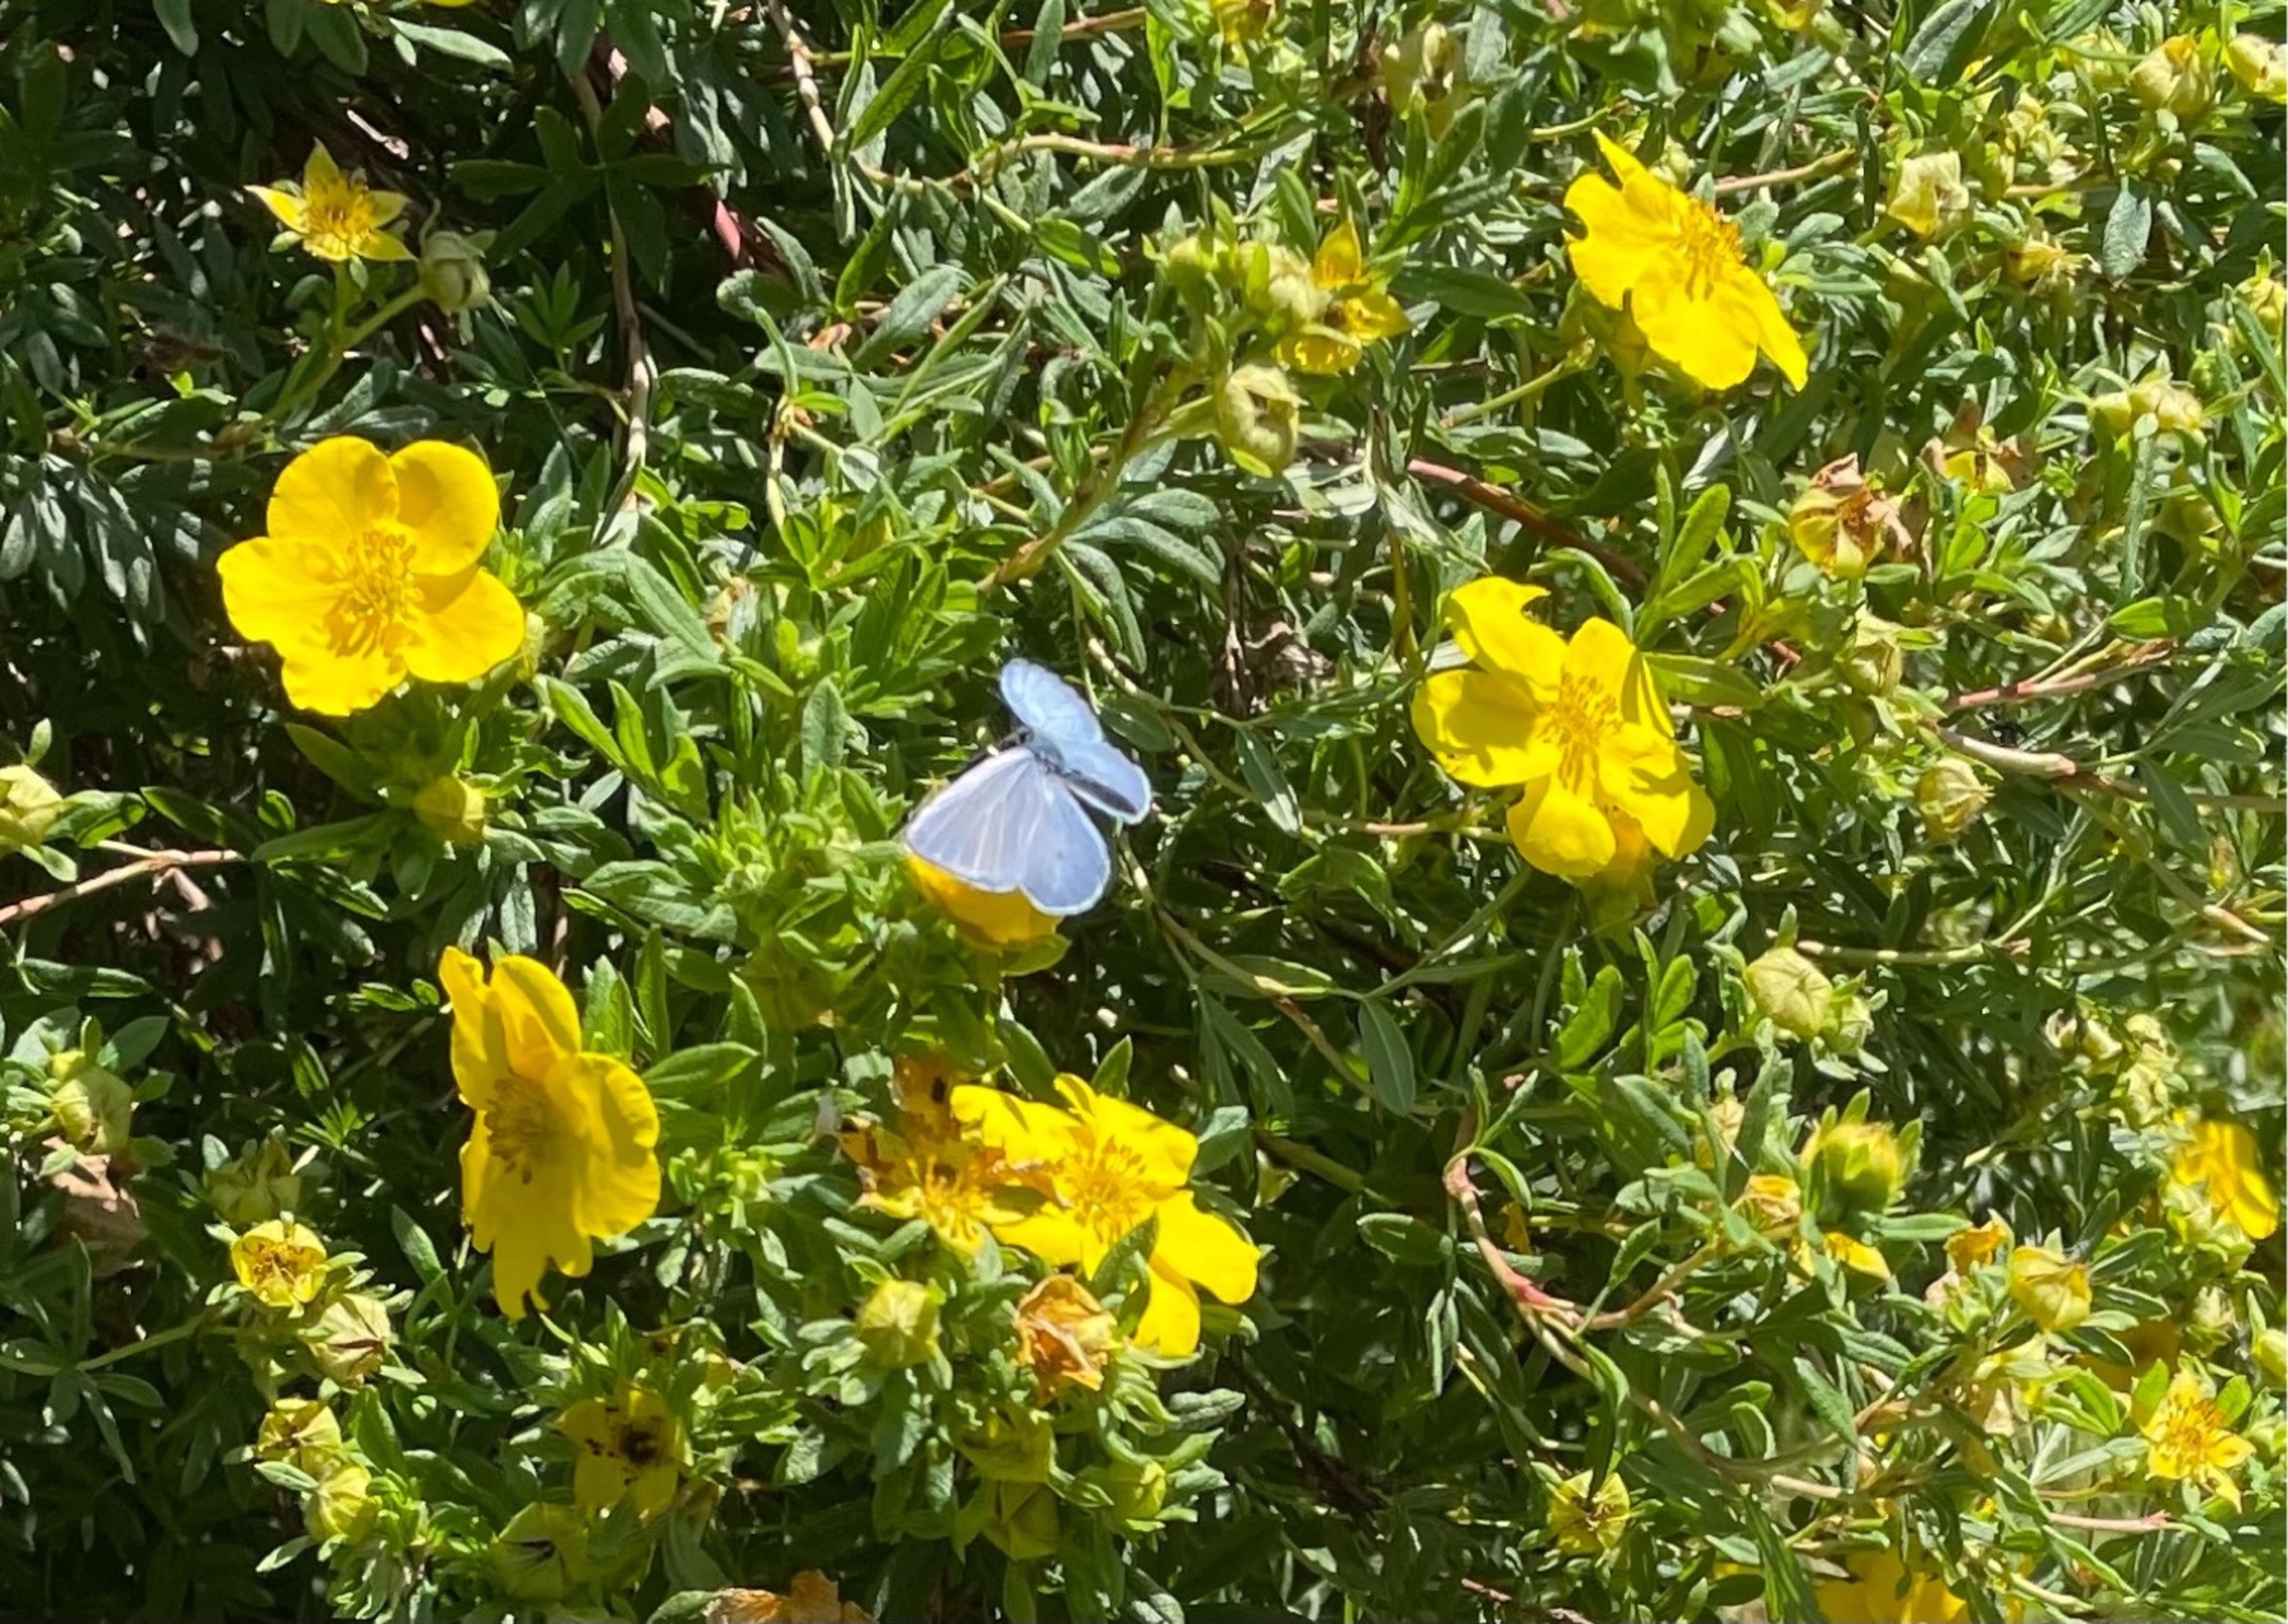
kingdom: Animalia
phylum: Arthropoda
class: Insecta
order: Lepidoptera
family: Lycaenidae
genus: Celastrina
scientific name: Celastrina argiolus
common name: Skovblåfugl
